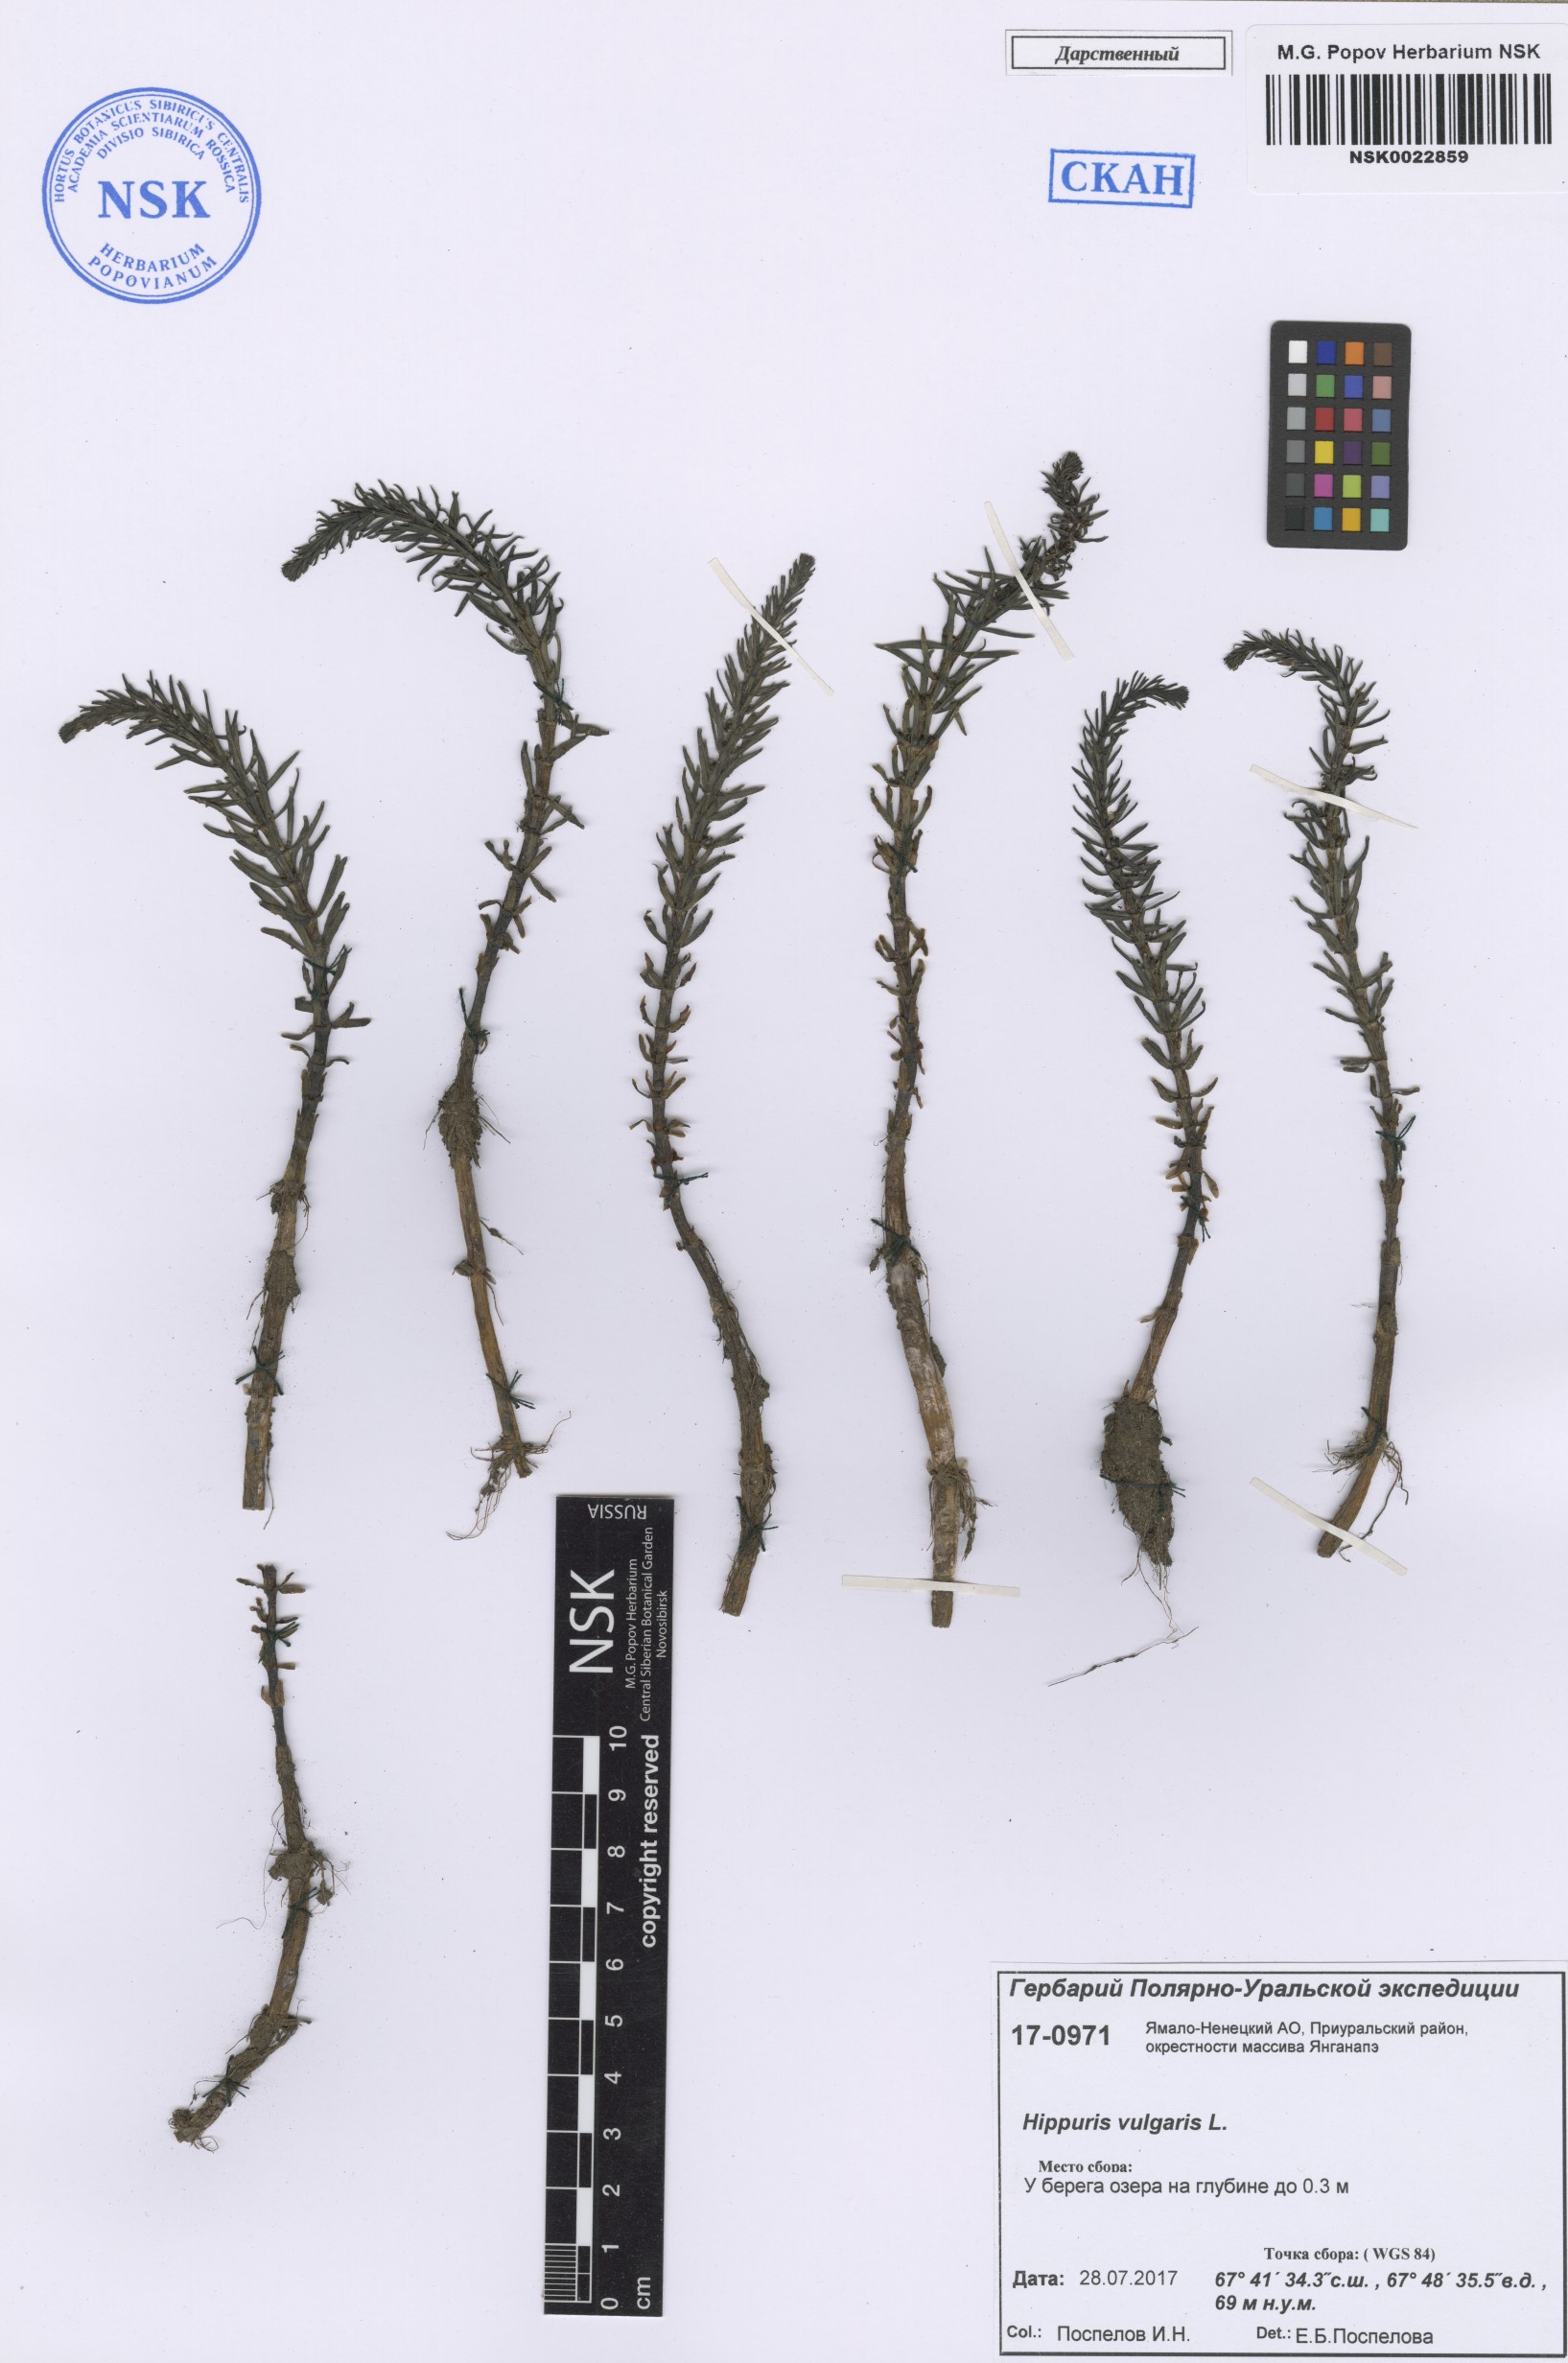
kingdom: Plantae
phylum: Tracheophyta
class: Magnoliopsida
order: Lamiales
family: Plantaginaceae
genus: Hippuris
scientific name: Hippuris vulgaris
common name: Mare's-tail
